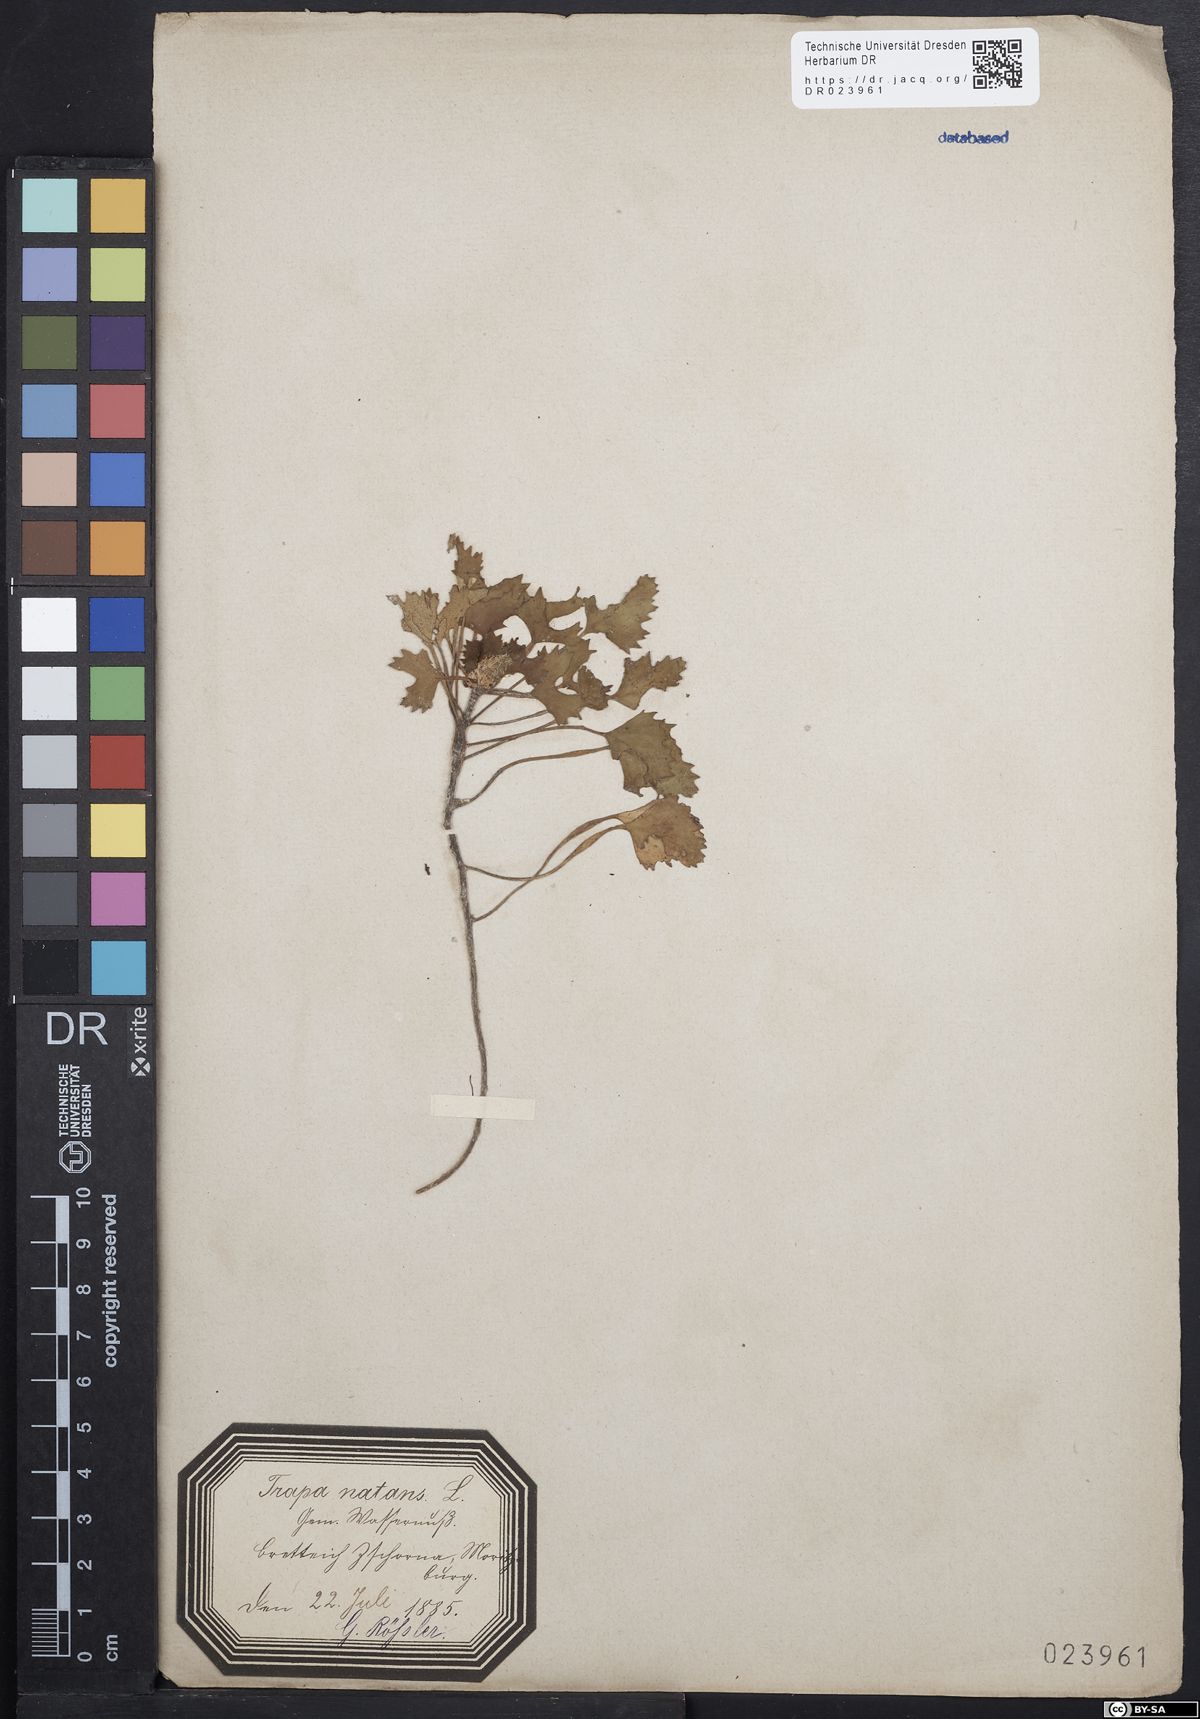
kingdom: Plantae
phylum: Tracheophyta
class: Magnoliopsida
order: Myrtales
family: Lythraceae
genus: Trapa
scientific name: Trapa natans
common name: Water chestnut
